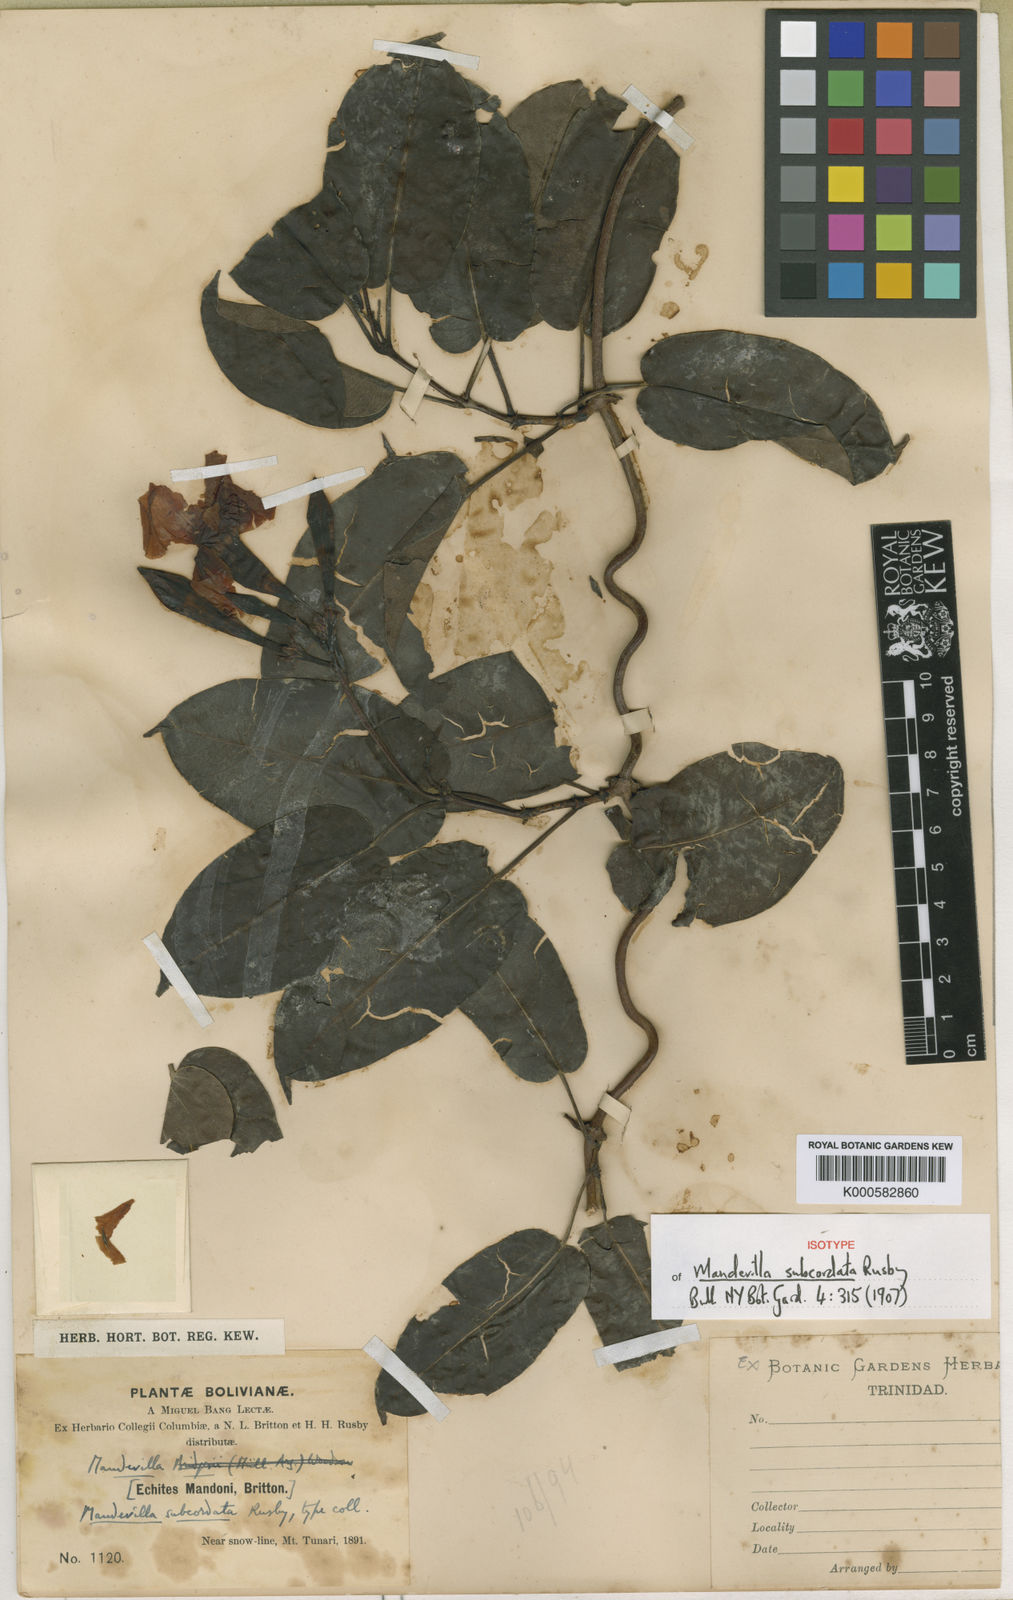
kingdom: Plantae
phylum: Tracheophyta
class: Magnoliopsida
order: Gentianales
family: Apocynaceae
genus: Mandevilla
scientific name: Mandevilla subcordata
